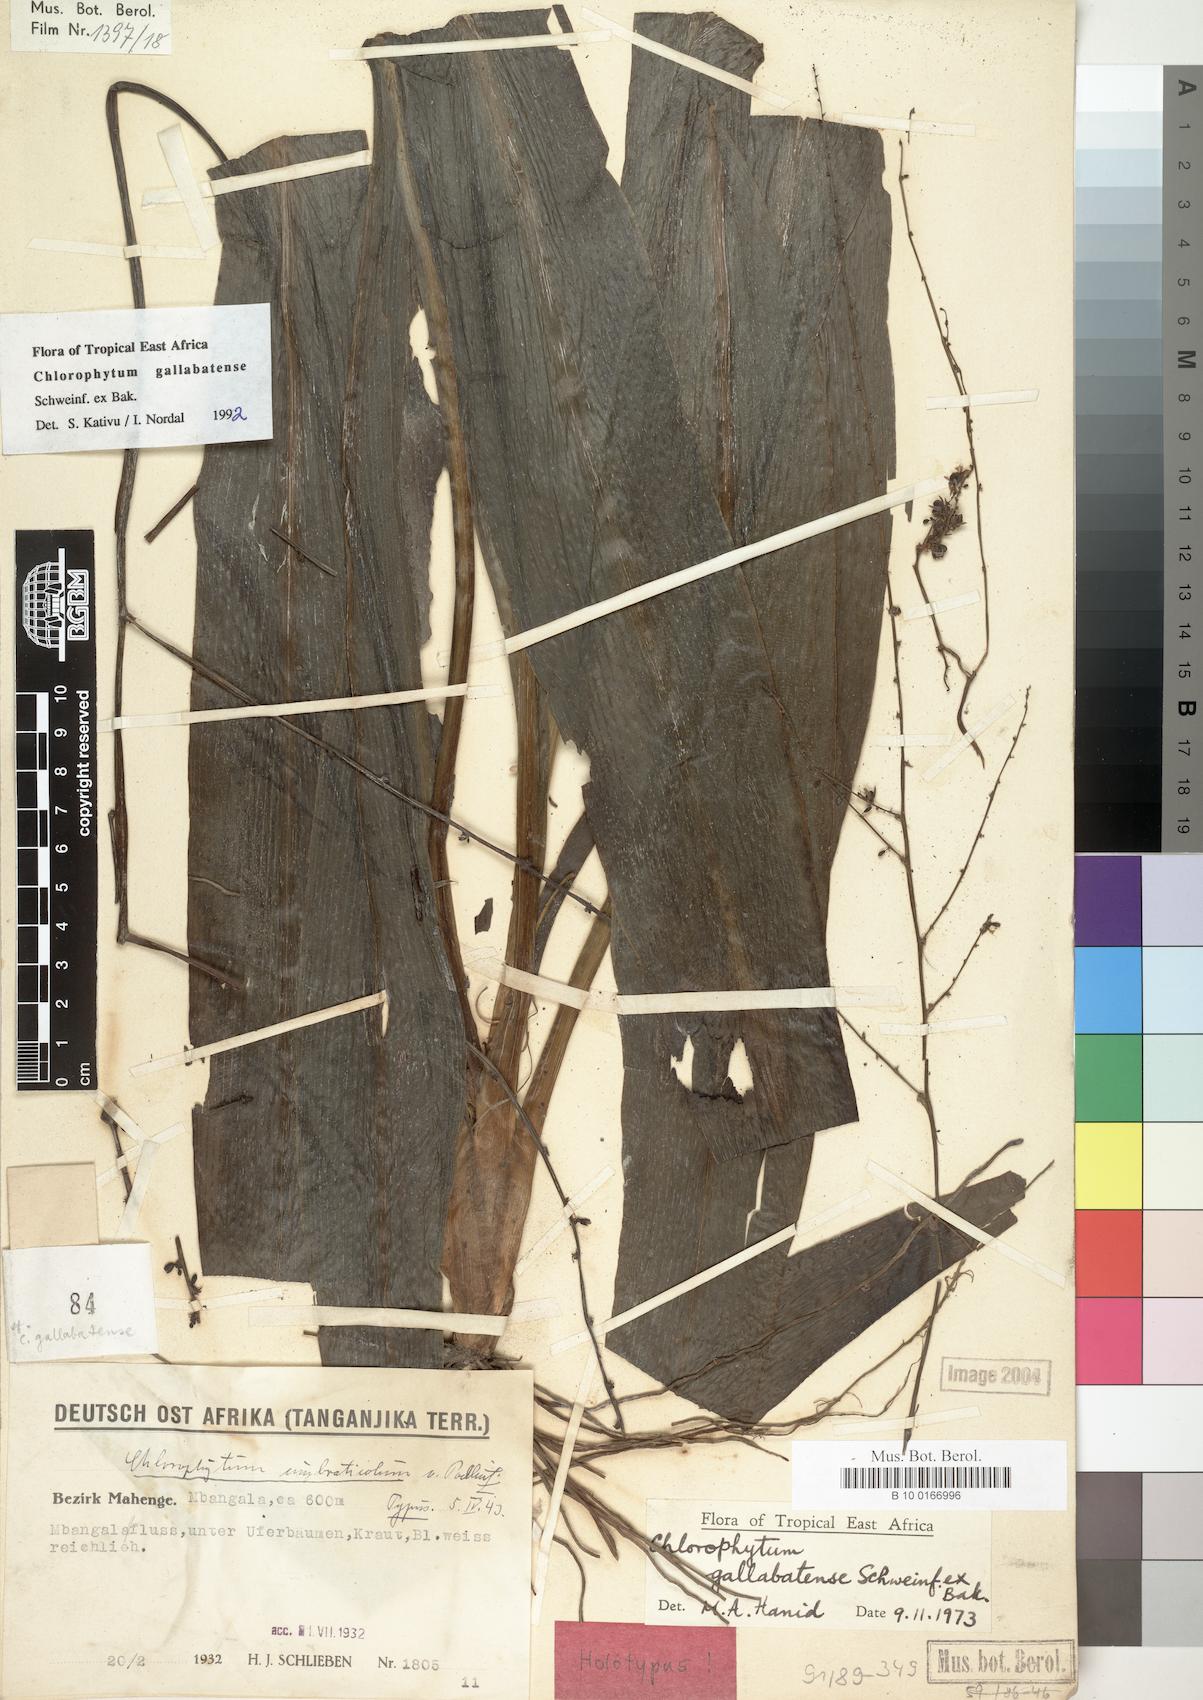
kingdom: Plantae
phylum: Tracheophyta
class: Liliopsida
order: Asparagales
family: Asparagaceae
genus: Chlorophytum
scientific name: Chlorophytum gallabatense
